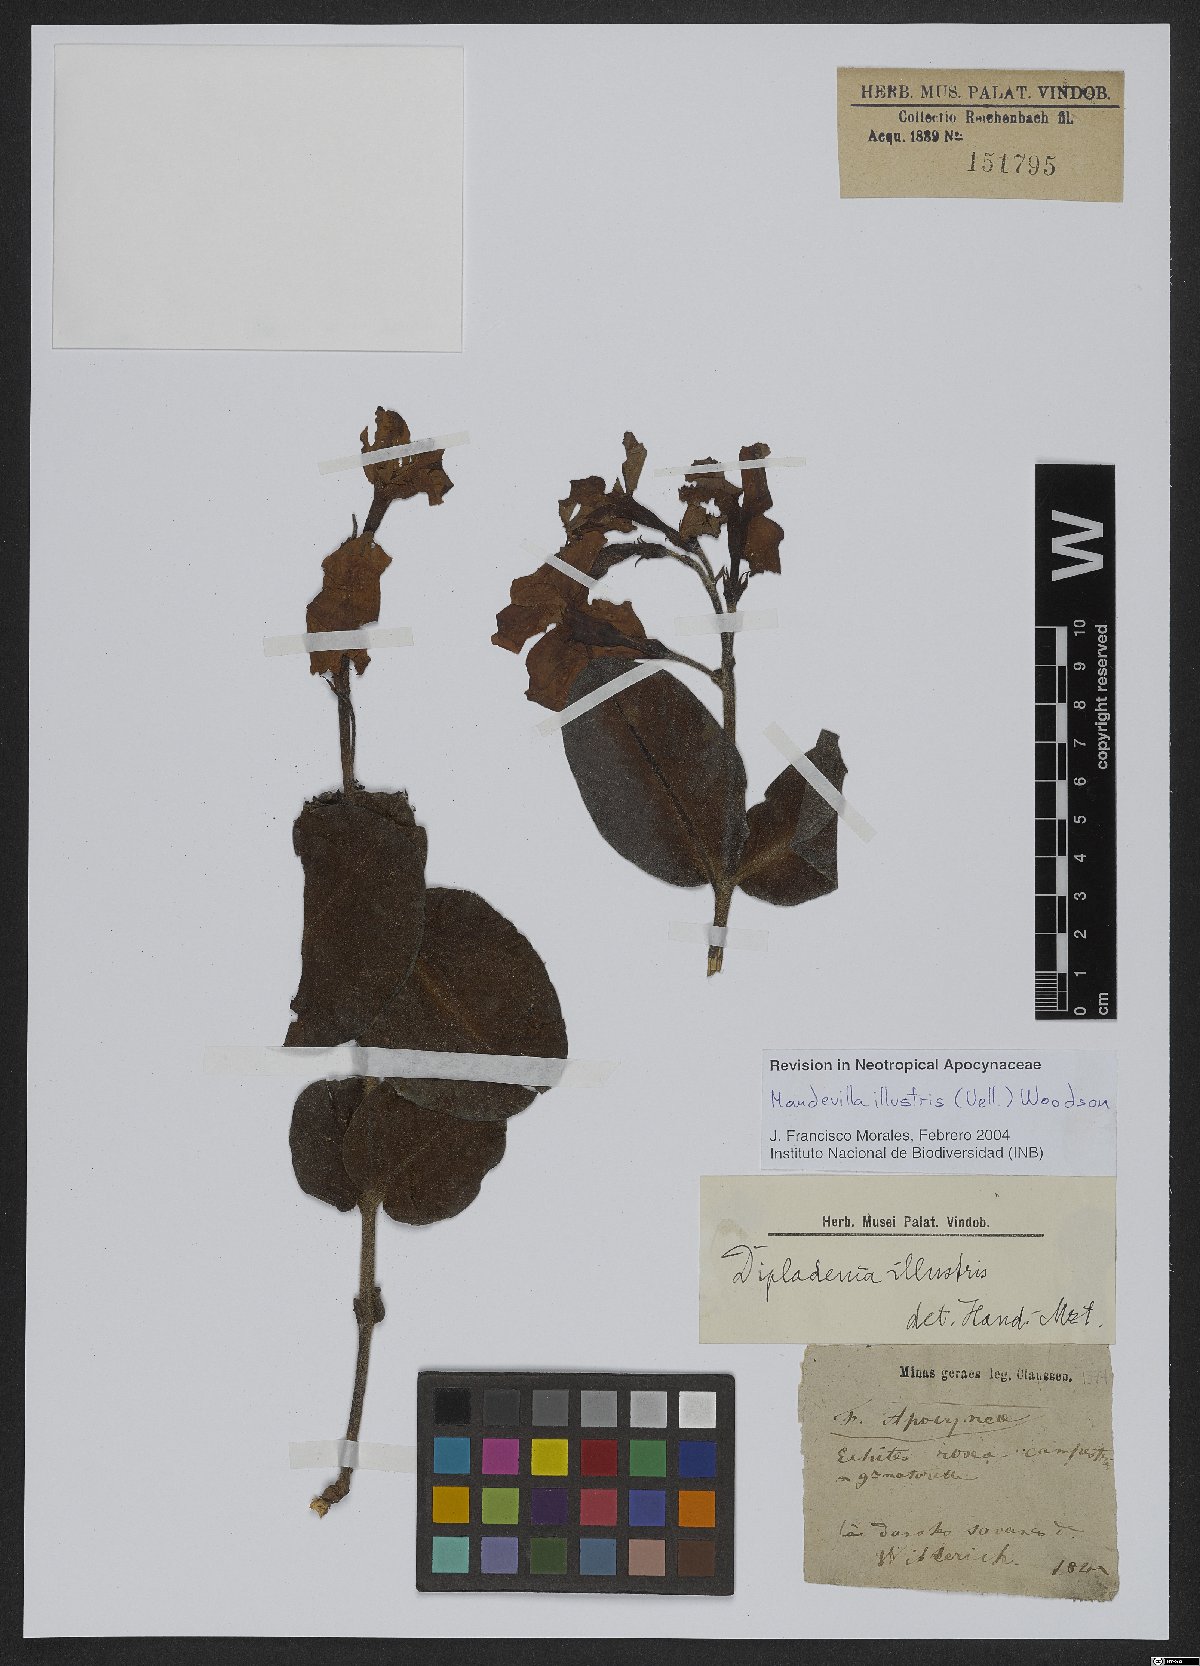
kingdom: Plantae
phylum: Tracheophyta
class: Magnoliopsida
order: Gentianales
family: Apocynaceae
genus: Mandevilla
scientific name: Mandevilla illustris
